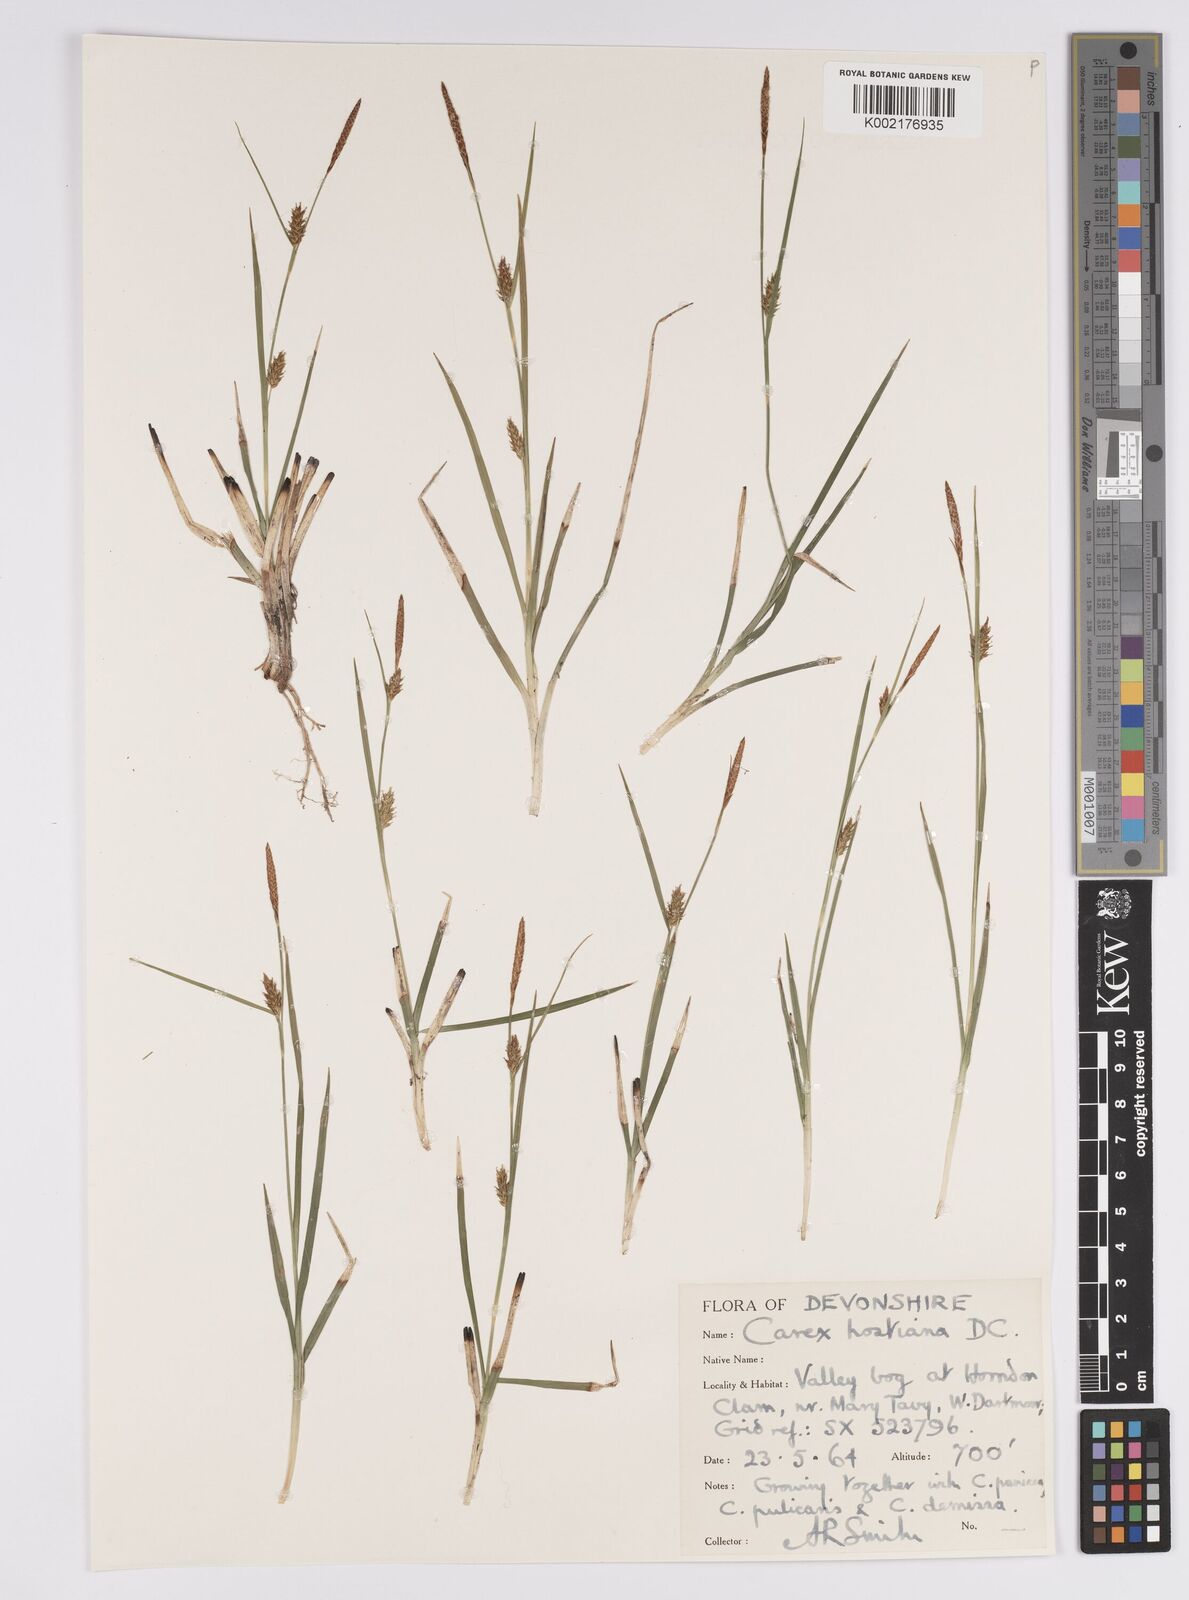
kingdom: Plantae
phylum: Tracheophyta
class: Liliopsida
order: Poales
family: Cyperaceae
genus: Carex
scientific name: Carex hostiana
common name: Tawny sedge
